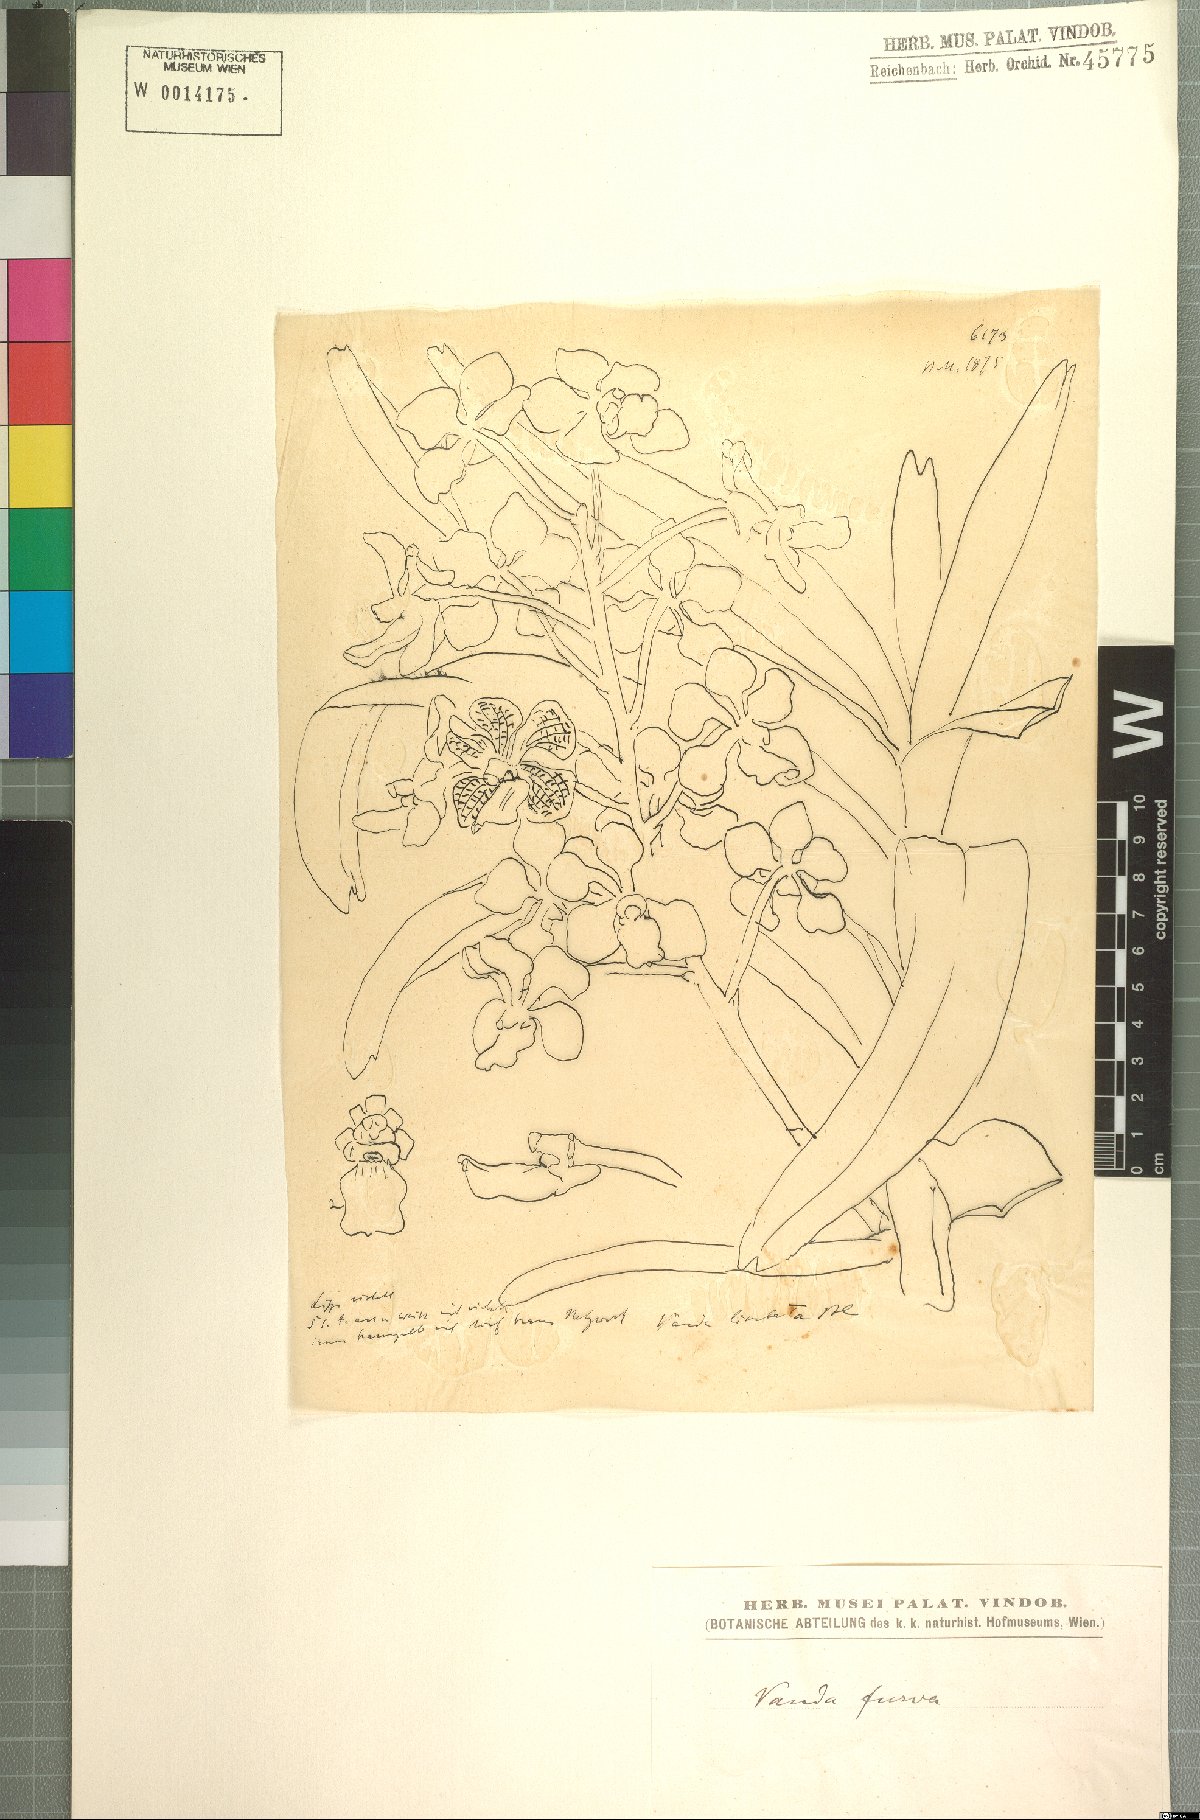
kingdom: Plantae
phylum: Tracheophyta
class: Liliopsida
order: Asparagales
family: Orchidaceae
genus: Vanda
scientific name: Vanda furva
